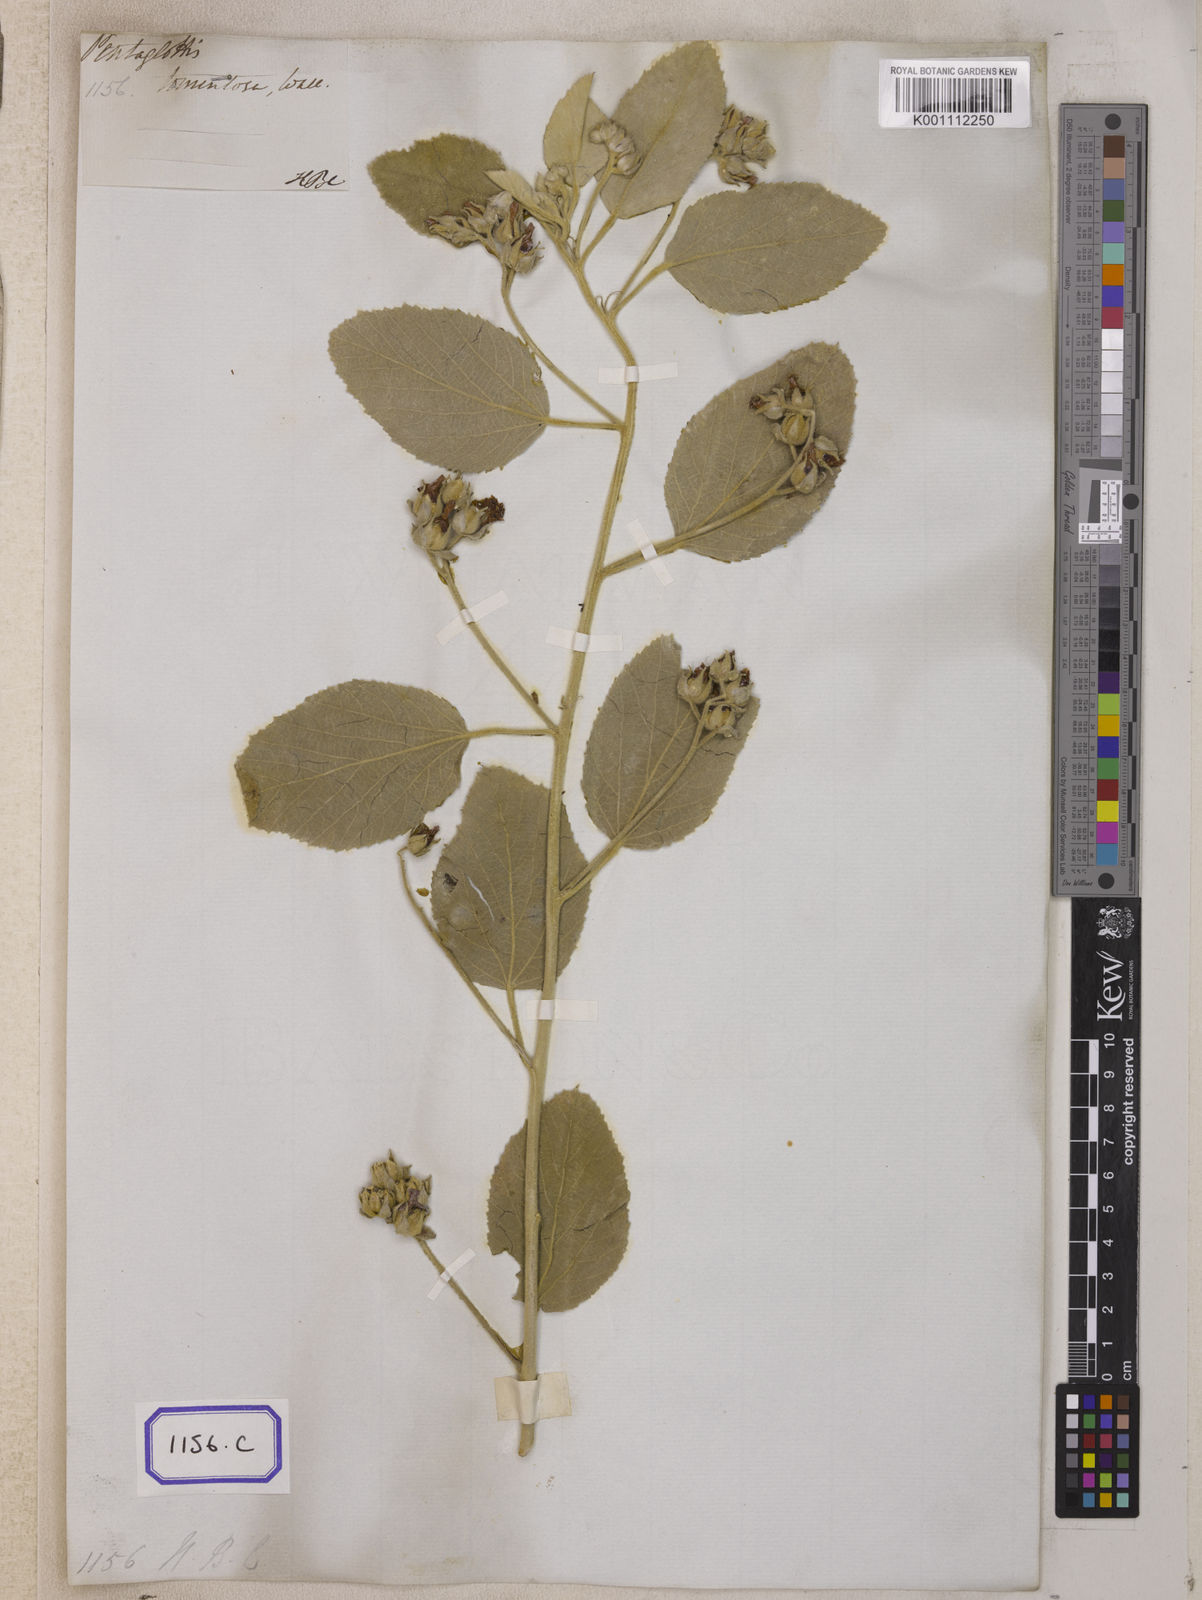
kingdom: Plantae
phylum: Tracheophyta
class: Magnoliopsida
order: Malvales
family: Malvaceae
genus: Melhania
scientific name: Melhania hamiltoniana
